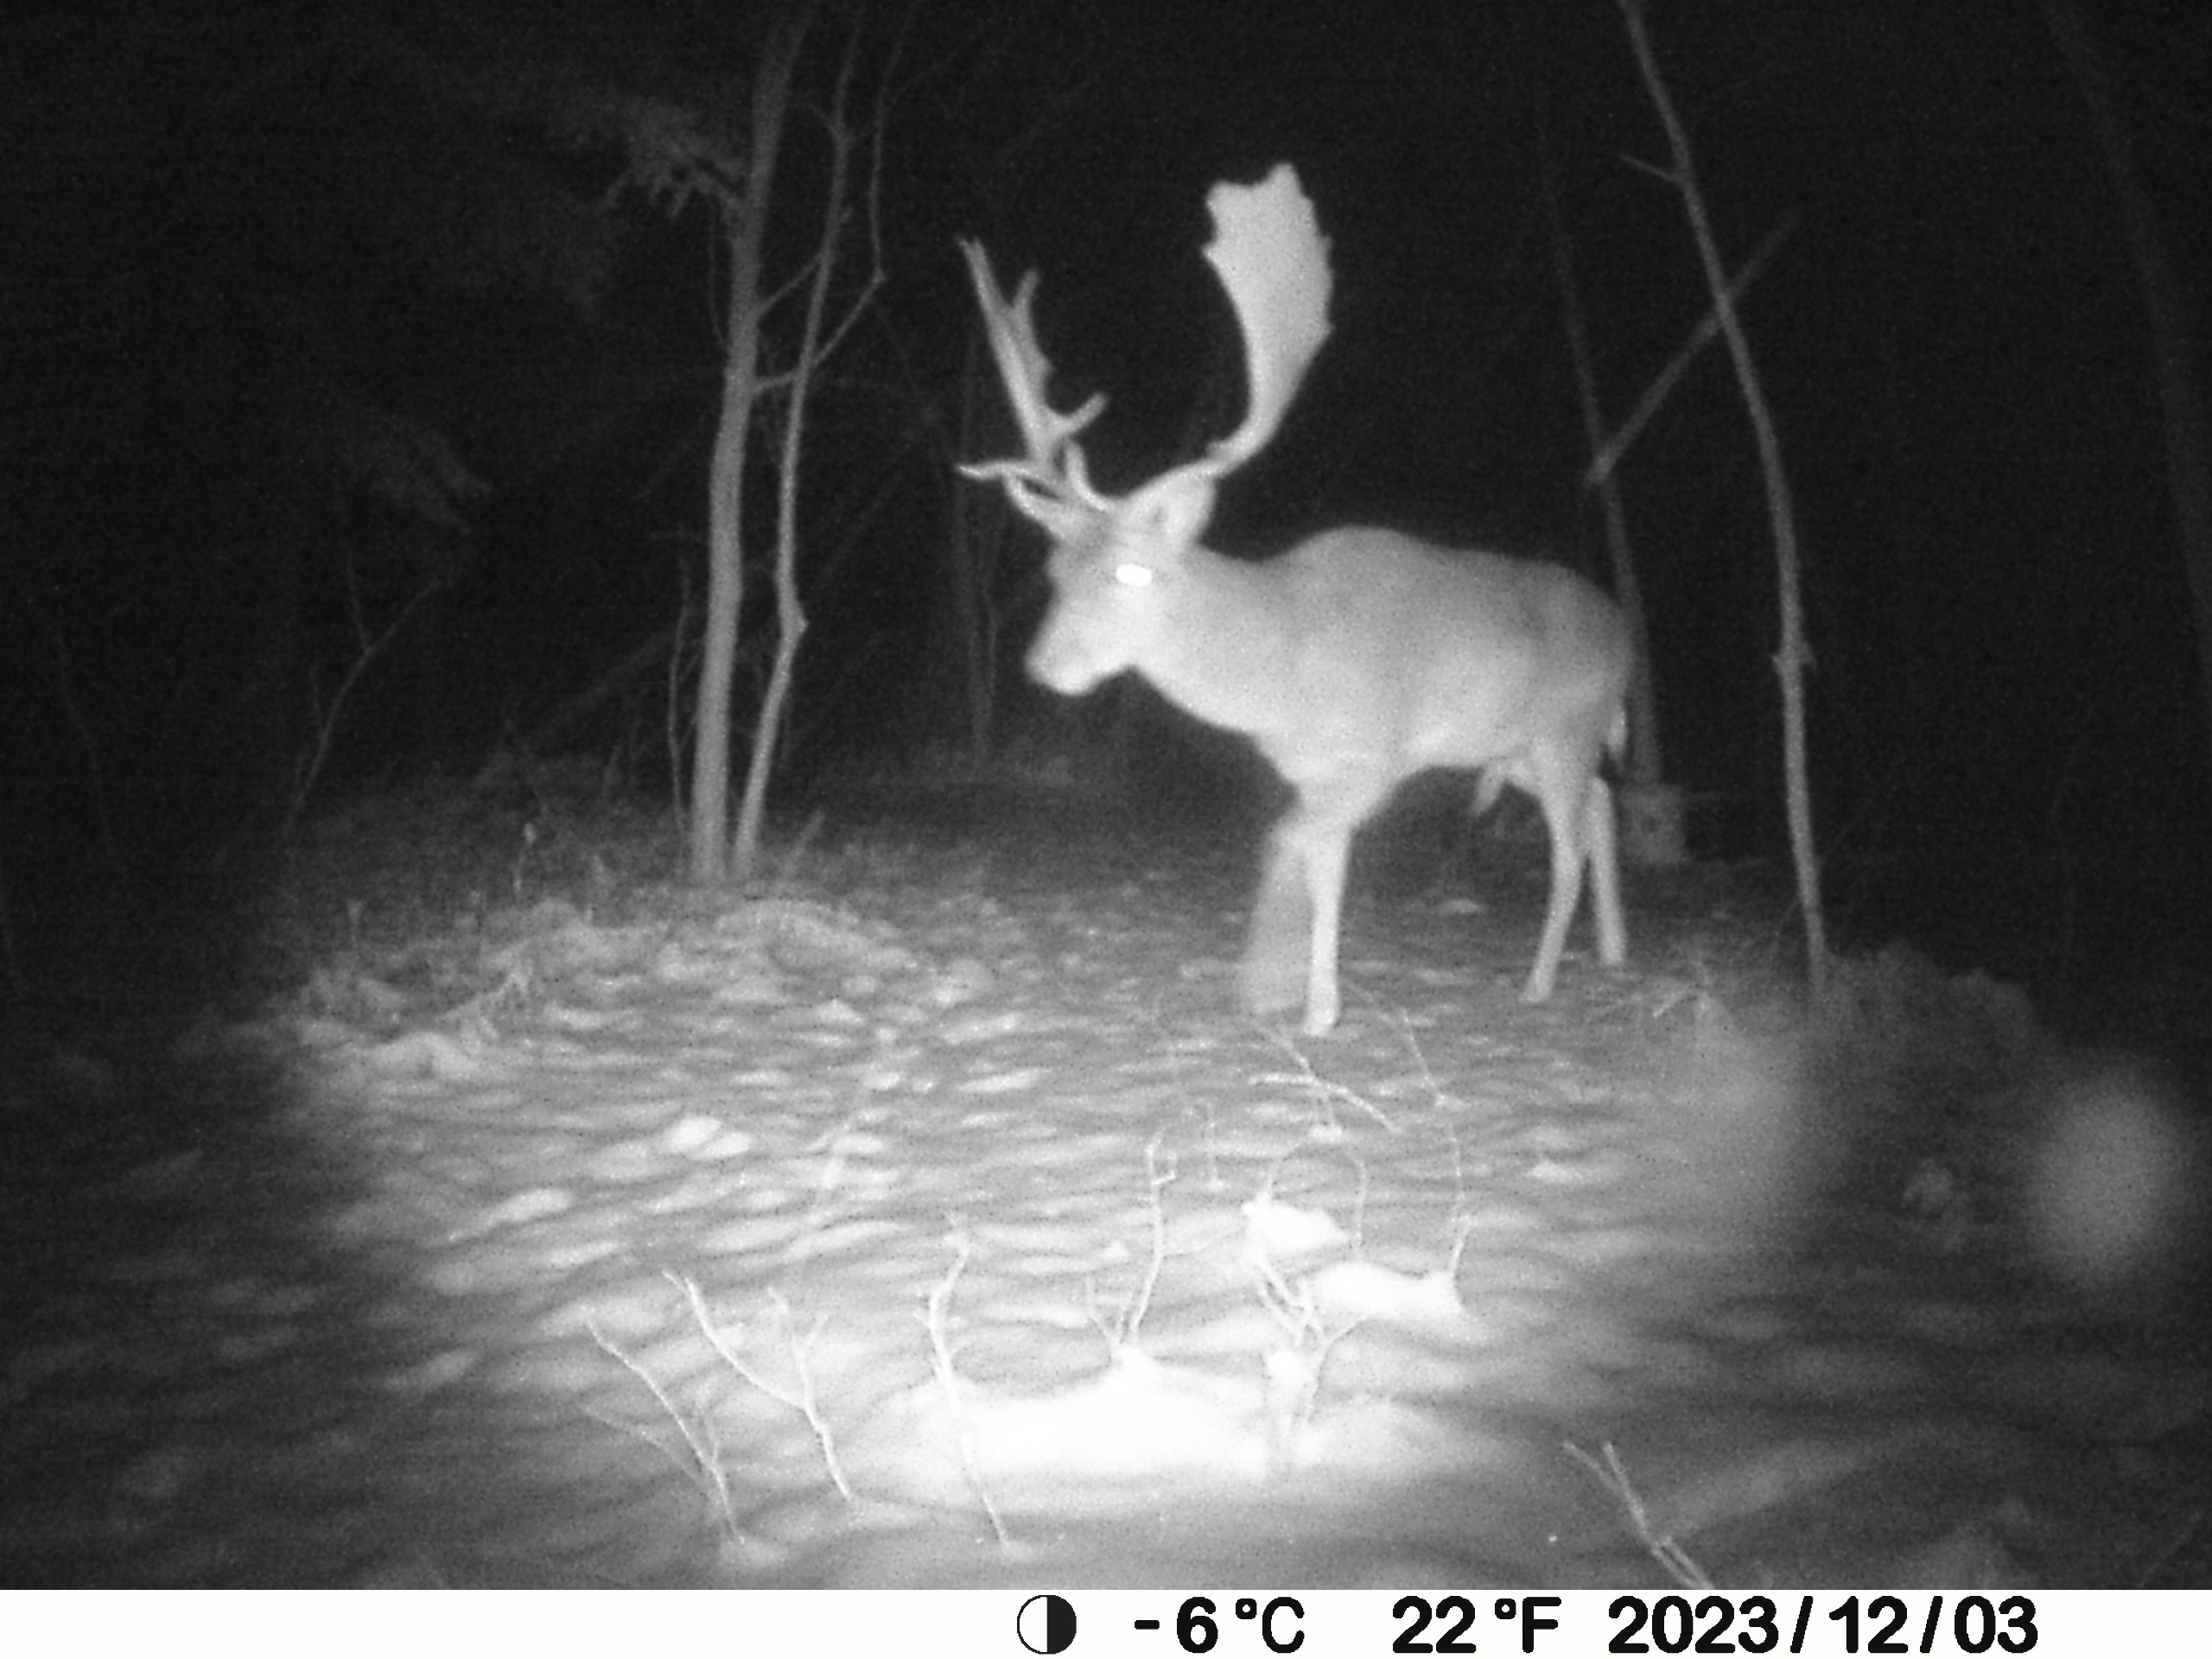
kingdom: Animalia
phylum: Chordata
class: Mammalia
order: Artiodactyla
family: Cervidae
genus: Dama
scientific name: Dama dama
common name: Dådyr
